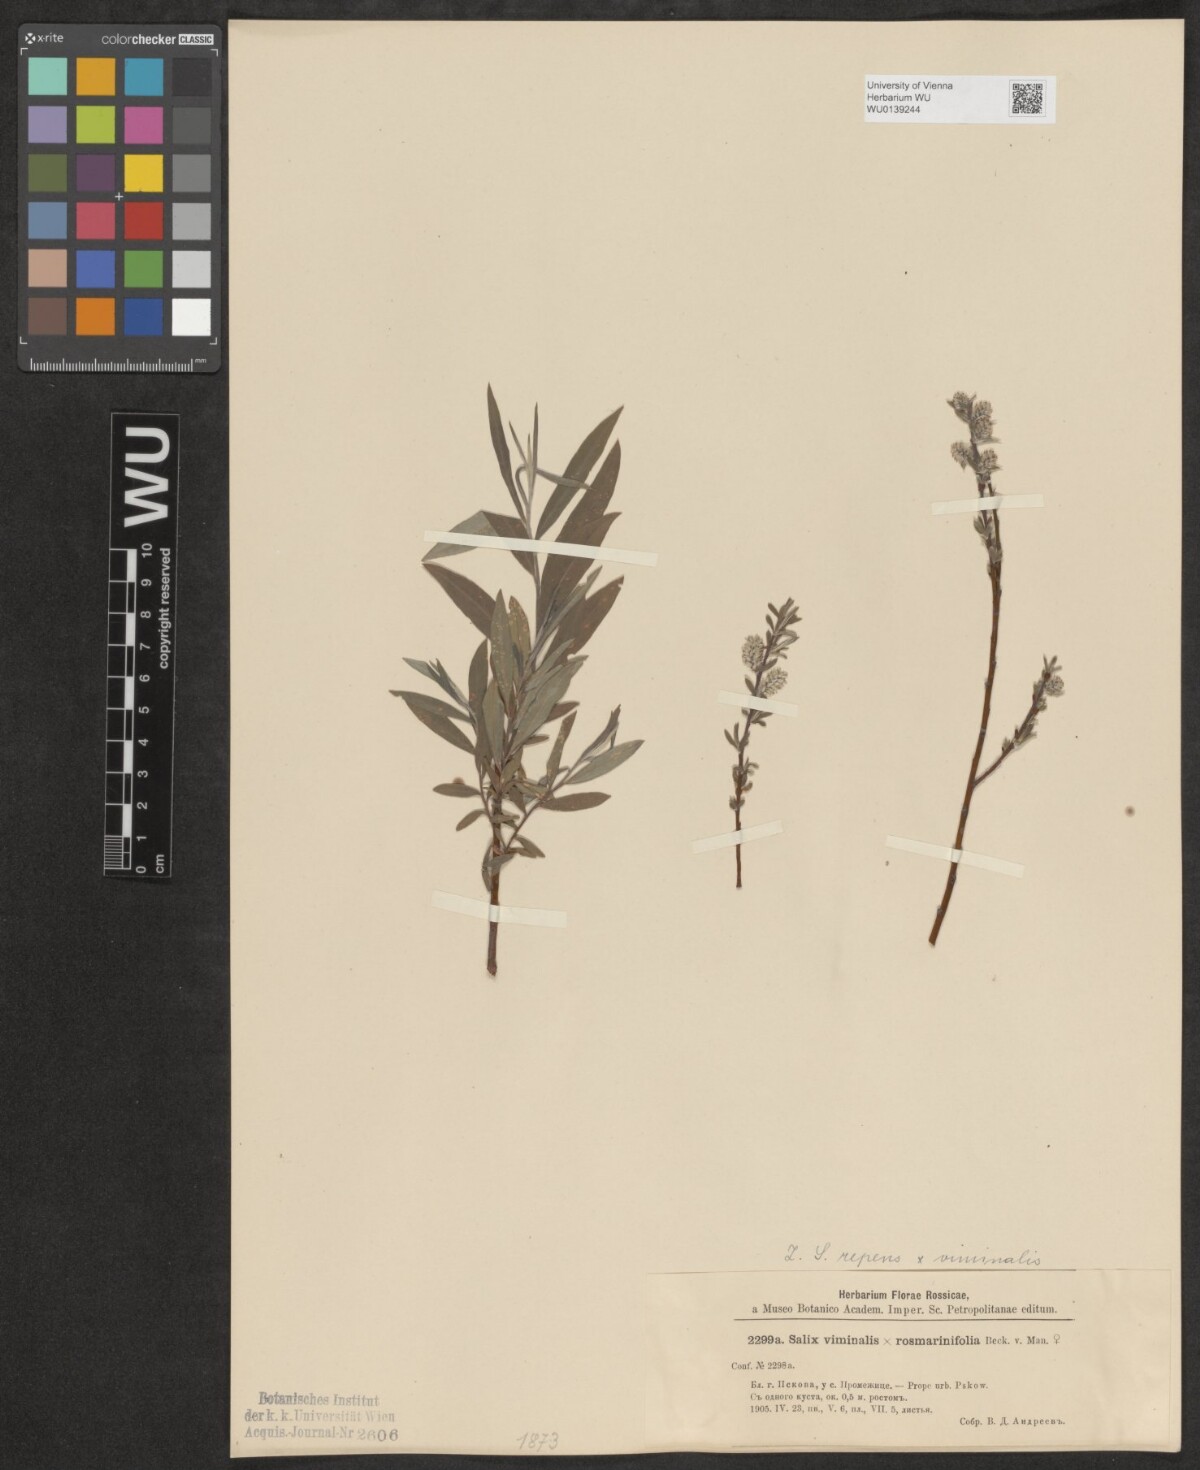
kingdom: Plantae
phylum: Tracheophyta
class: Magnoliopsida
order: Malpighiales
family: Salicaceae
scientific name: Salicaceae
